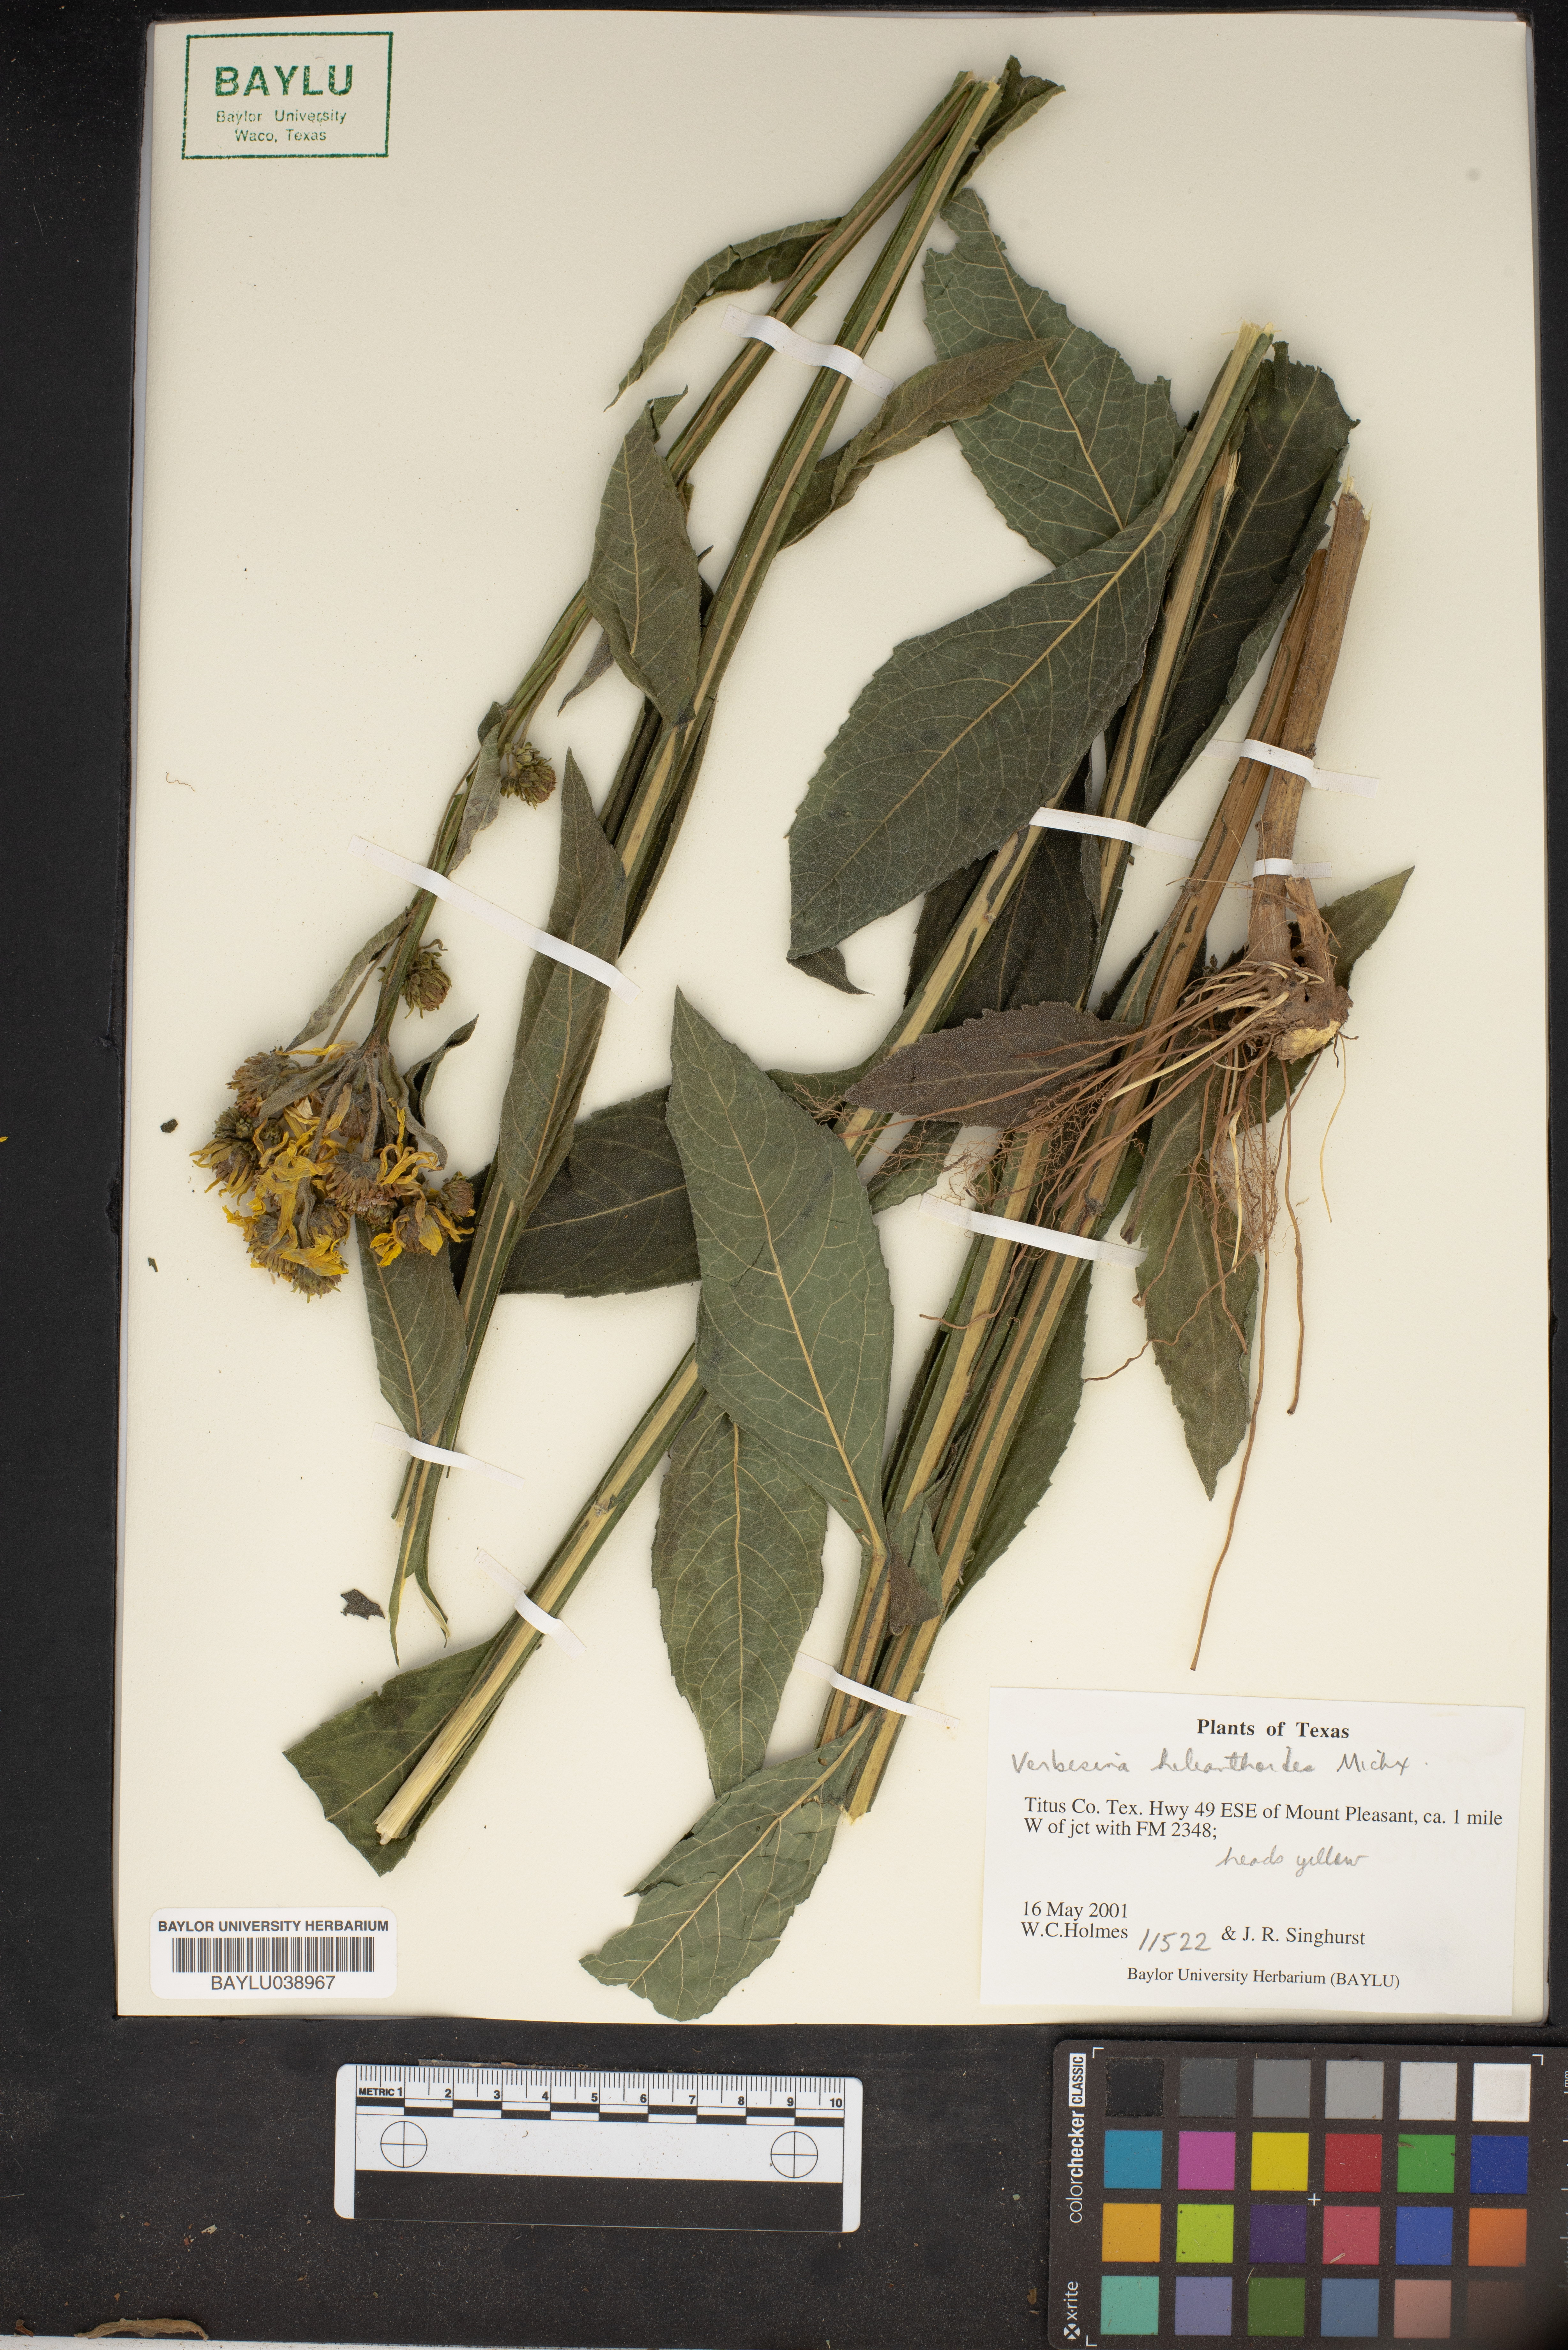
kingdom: Plantae
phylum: Tracheophyta
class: Magnoliopsida
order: Asterales
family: Asteraceae
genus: Verbesina
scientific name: Verbesina helianthoides
